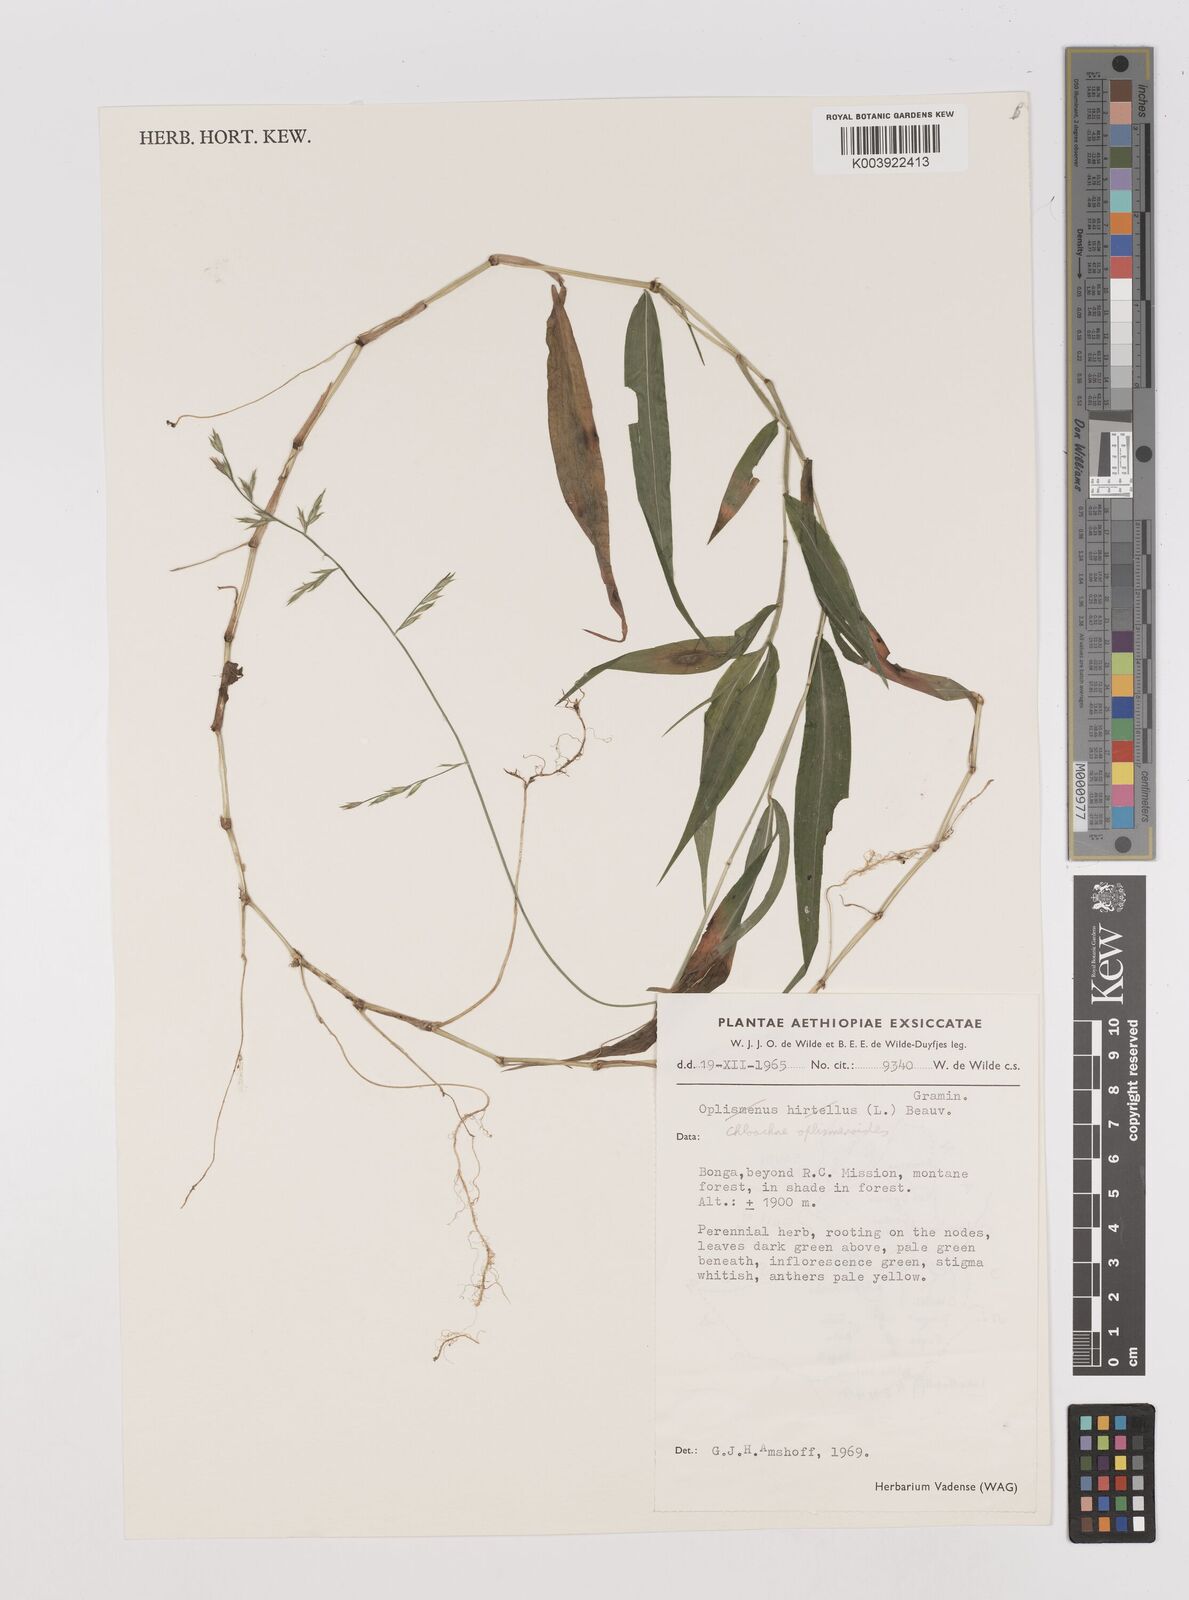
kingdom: Plantae
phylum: Tracheophyta
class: Liliopsida
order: Poales
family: Poaceae
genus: Poecilostachys
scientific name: Poecilostachys oplismenoides
